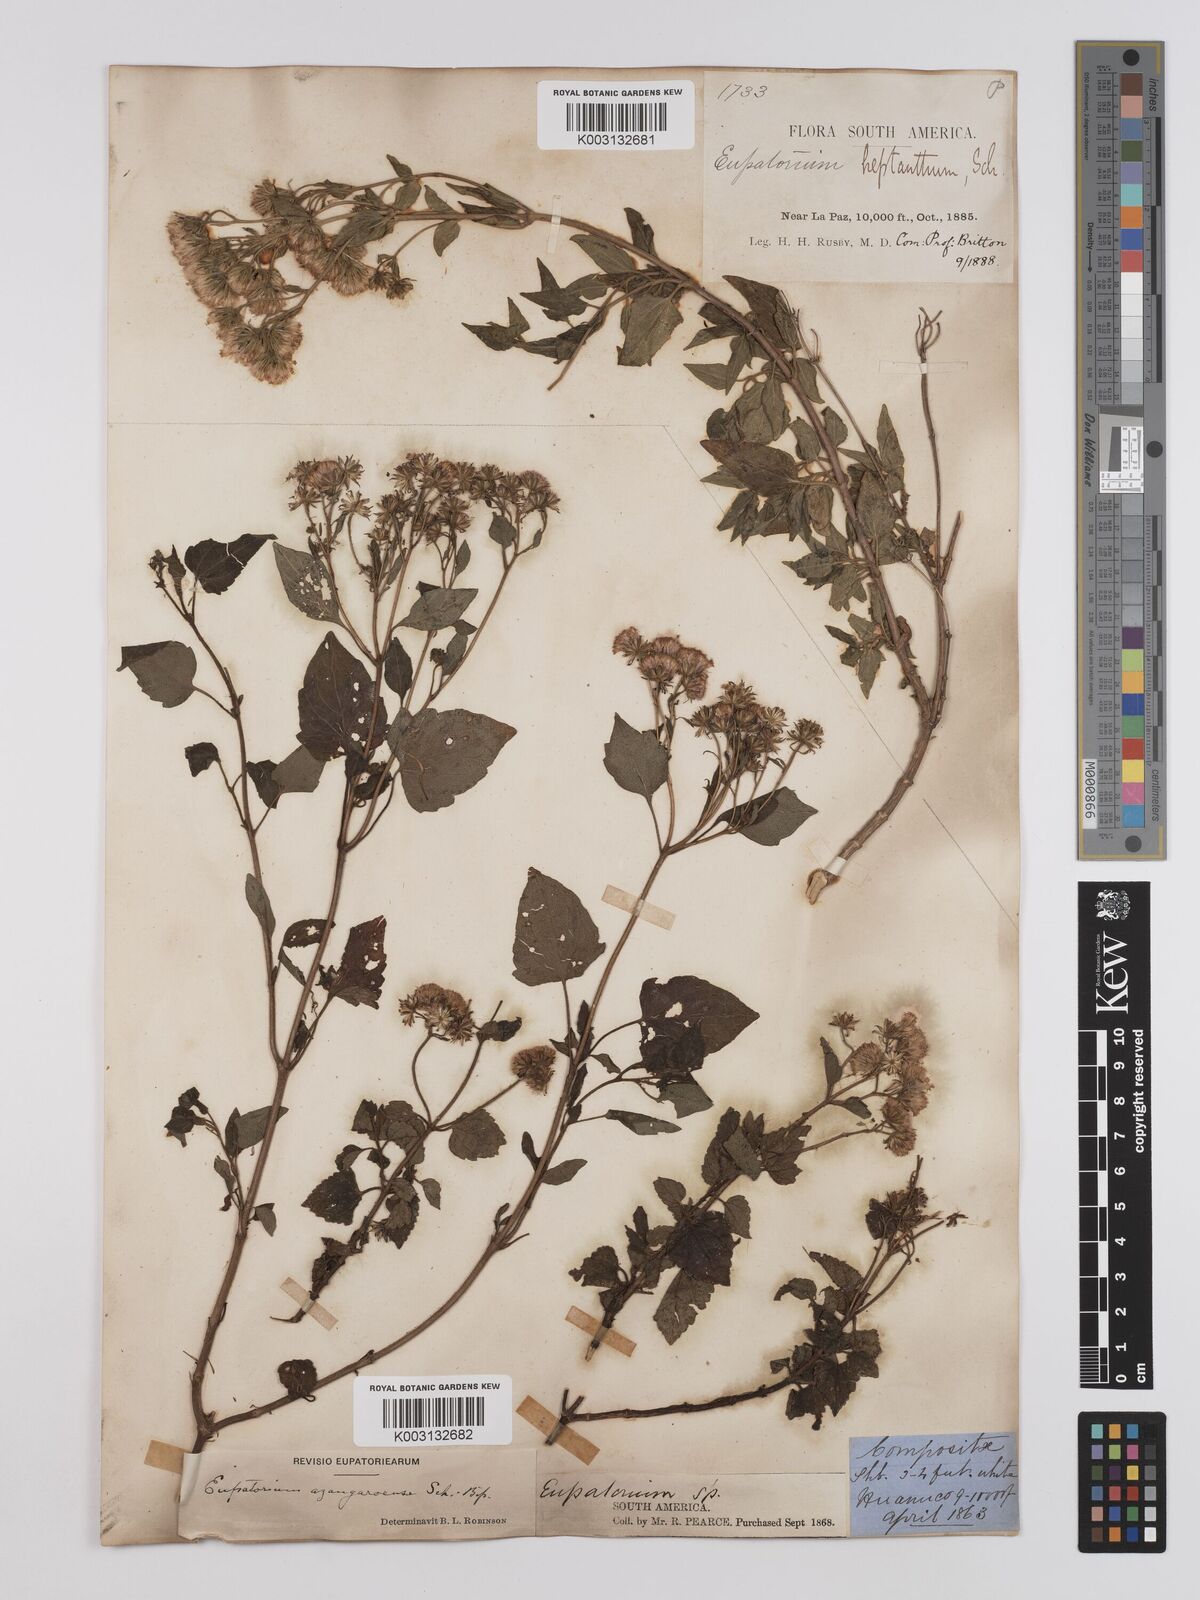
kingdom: Plantae
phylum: Tracheophyta
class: Magnoliopsida
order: Asterales
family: Asteraceae
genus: Ageratina
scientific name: Ageratina glechonophylla
